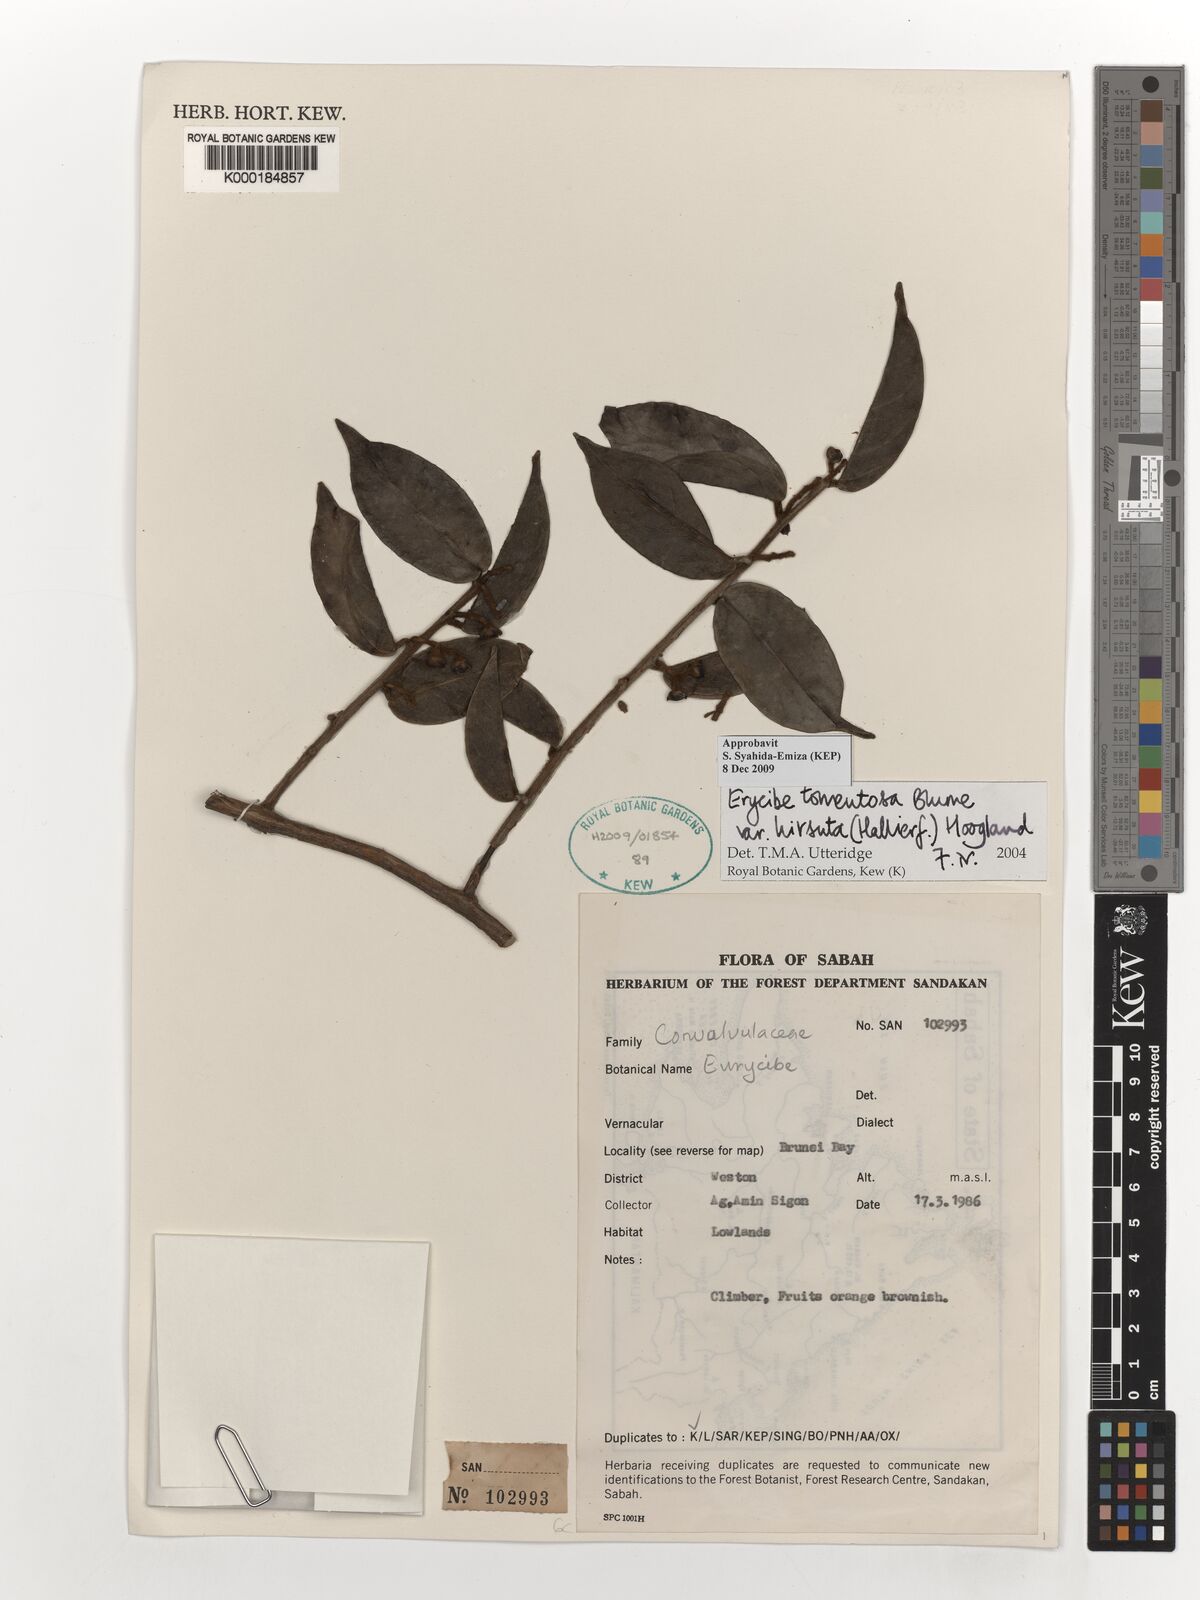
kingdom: Plantae
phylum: Tracheophyta
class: Magnoliopsida
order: Solanales
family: Convolvulaceae
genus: Erycibe
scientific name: Erycibe tomentosa
